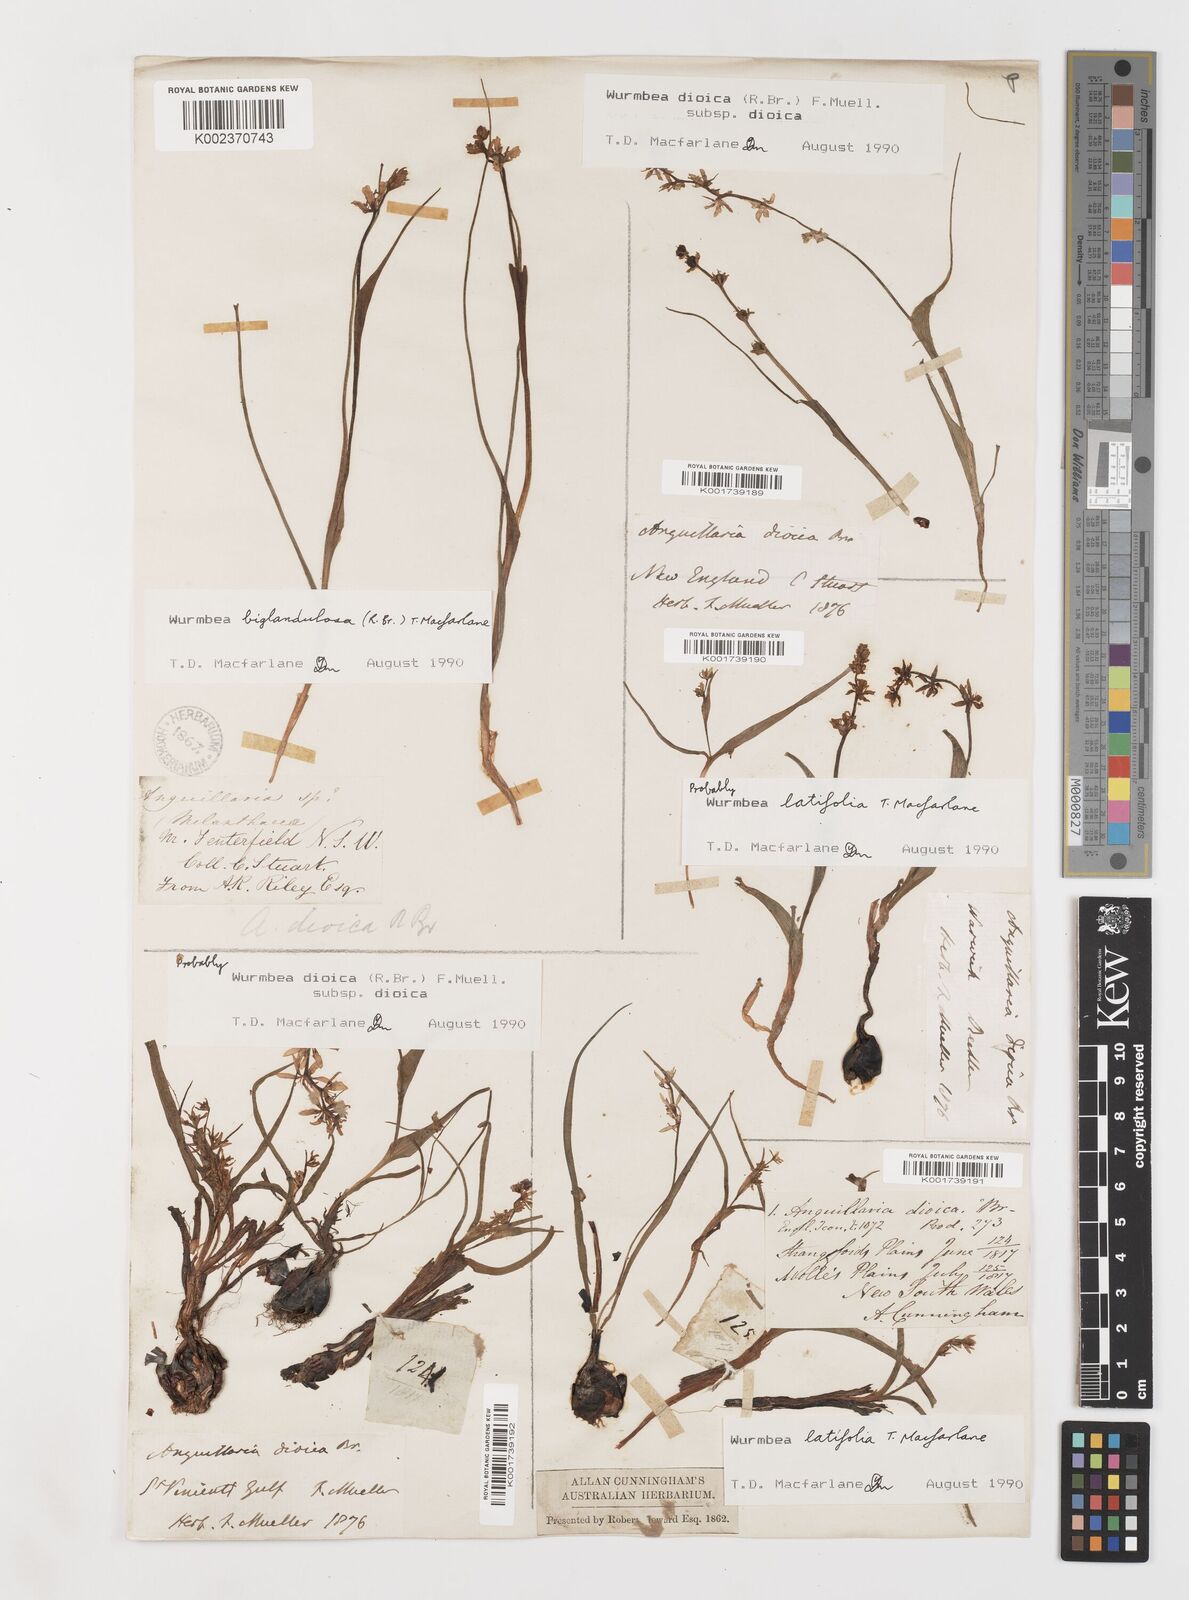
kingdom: Plantae
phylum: Tracheophyta
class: Liliopsida
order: Liliales
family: Colchicaceae
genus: Wurmbea
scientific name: Wurmbea latifolia
